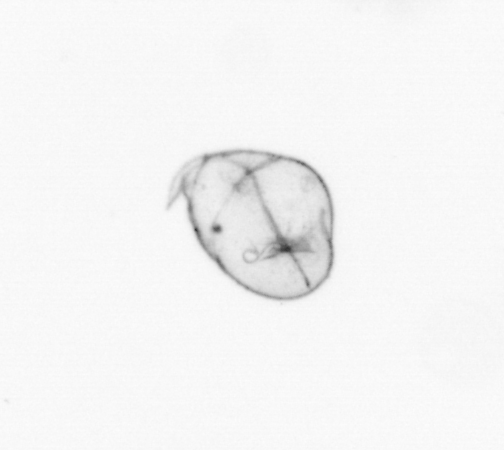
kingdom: Chromista
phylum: Myzozoa
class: Dinophyceae
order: Noctilucales
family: Noctilucaceae
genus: Noctiluca
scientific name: Noctiluca scintillans
